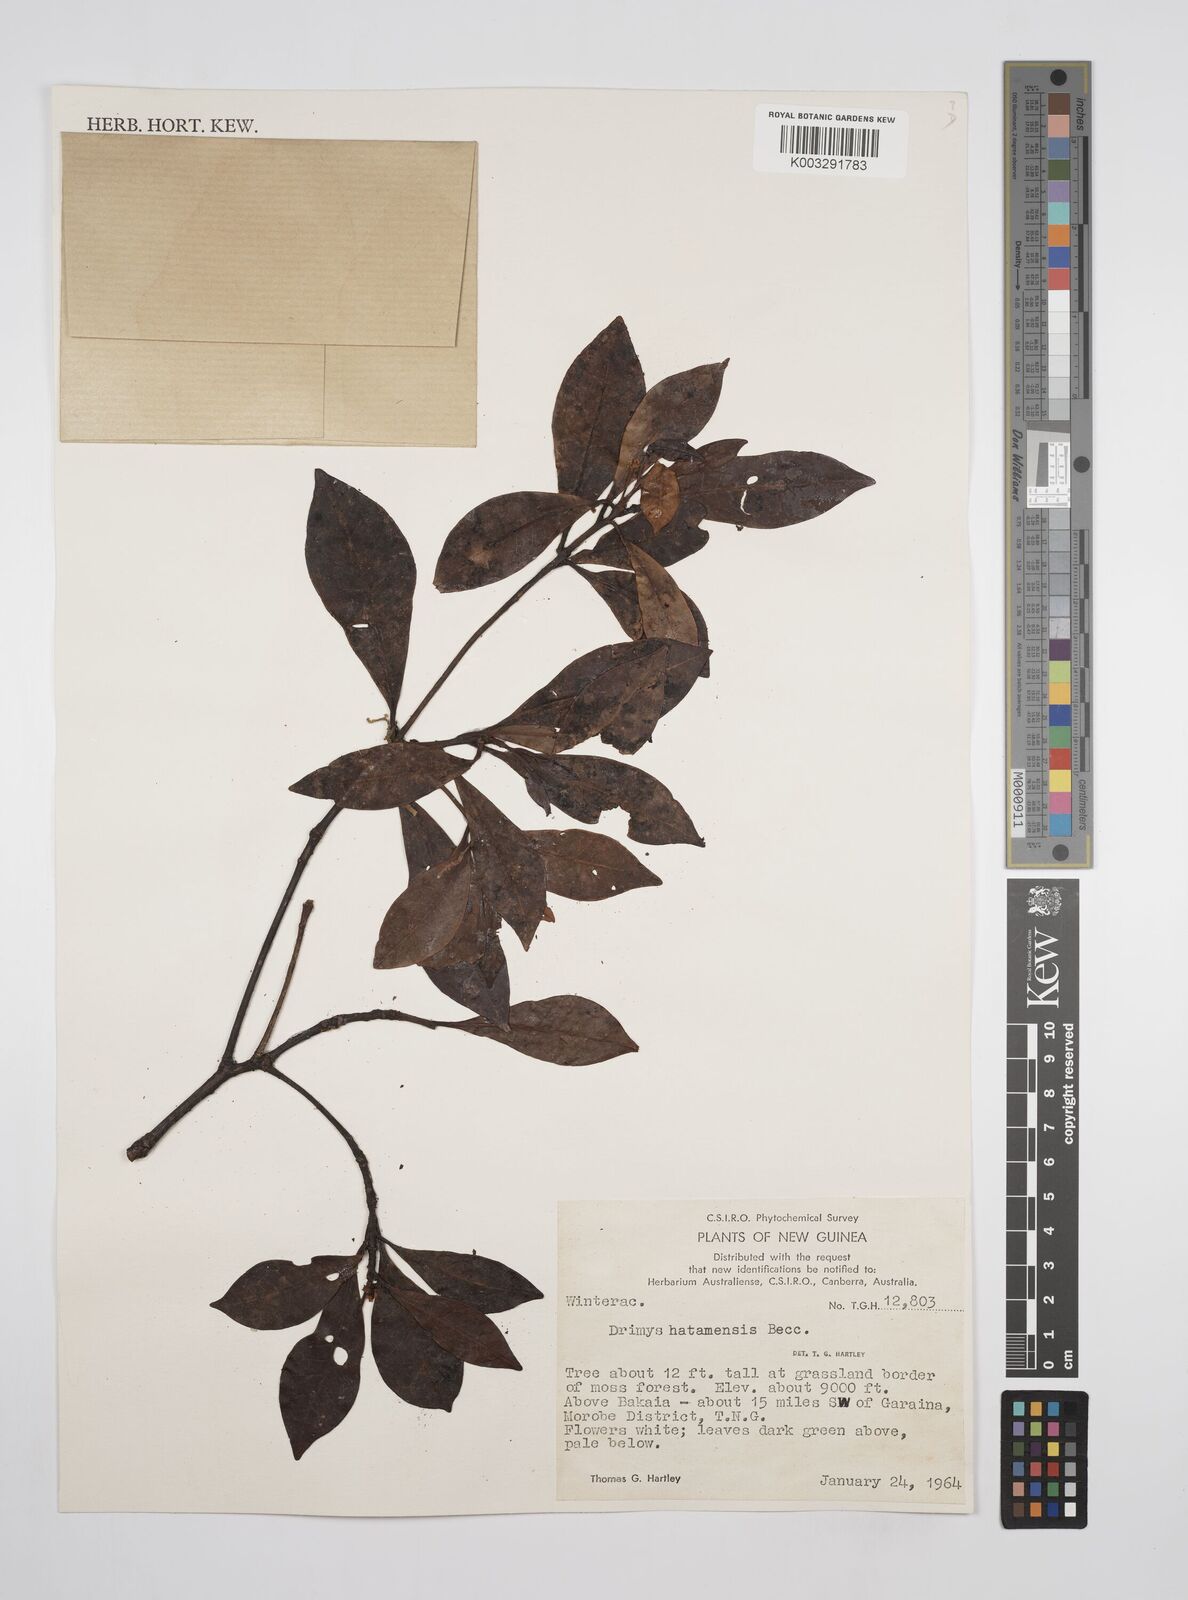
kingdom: Plantae
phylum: Tracheophyta
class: Magnoliopsida
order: Canellales
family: Winteraceae
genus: Drimys
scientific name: Drimys piperita
